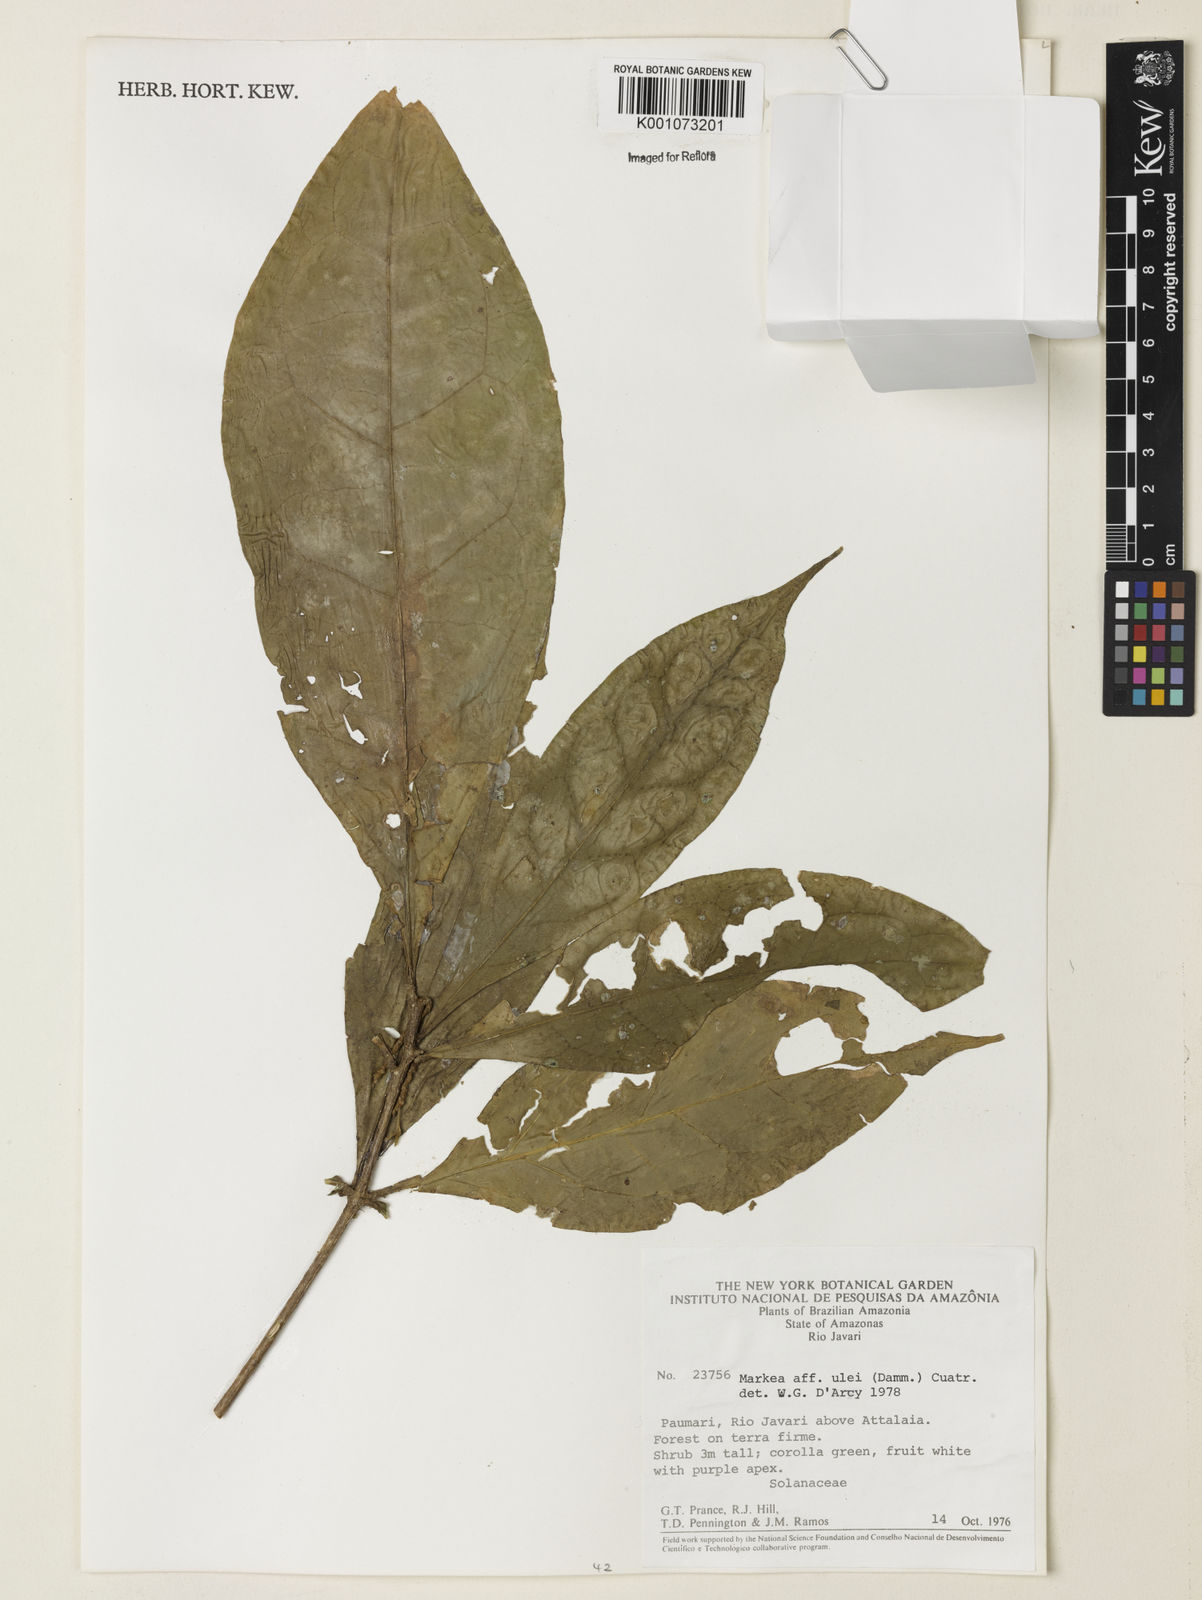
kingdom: Plantae
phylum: Tracheophyta
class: Magnoliopsida
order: Solanales
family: Solanaceae
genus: Juanulloa
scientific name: Juanulloa
